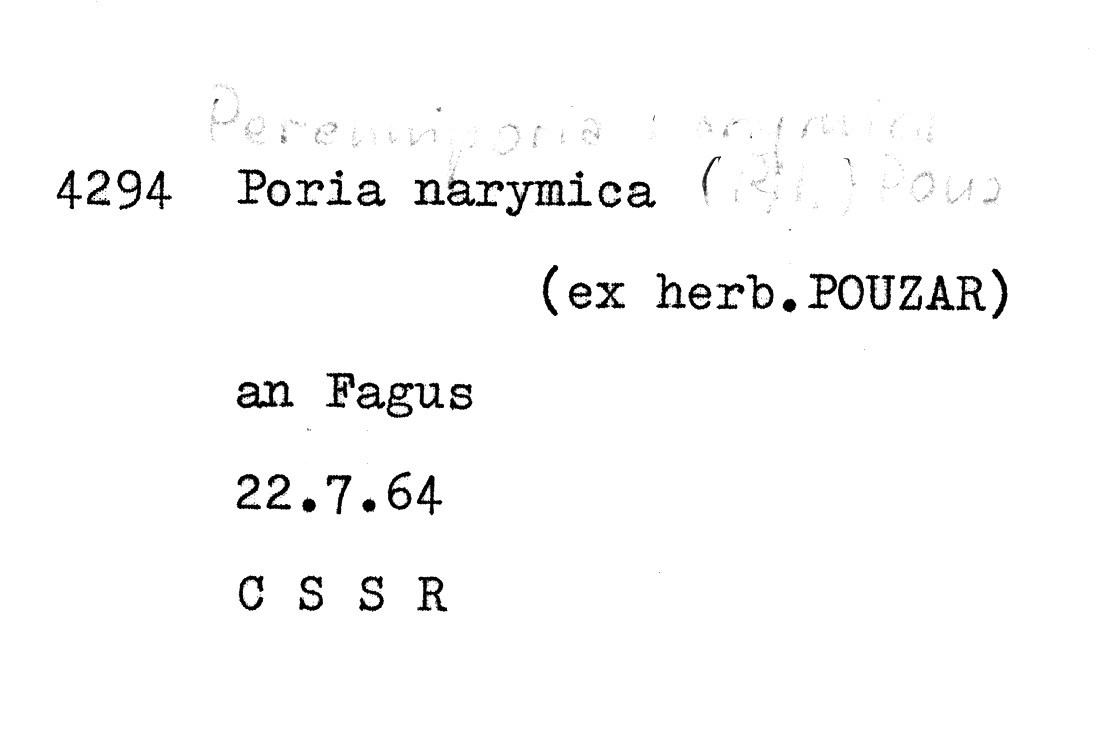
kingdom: Fungi
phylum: Basidiomycota
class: Agaricomycetes
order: Polyporales
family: Polyporaceae
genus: Yuchengia
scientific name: Yuchengia narymica
